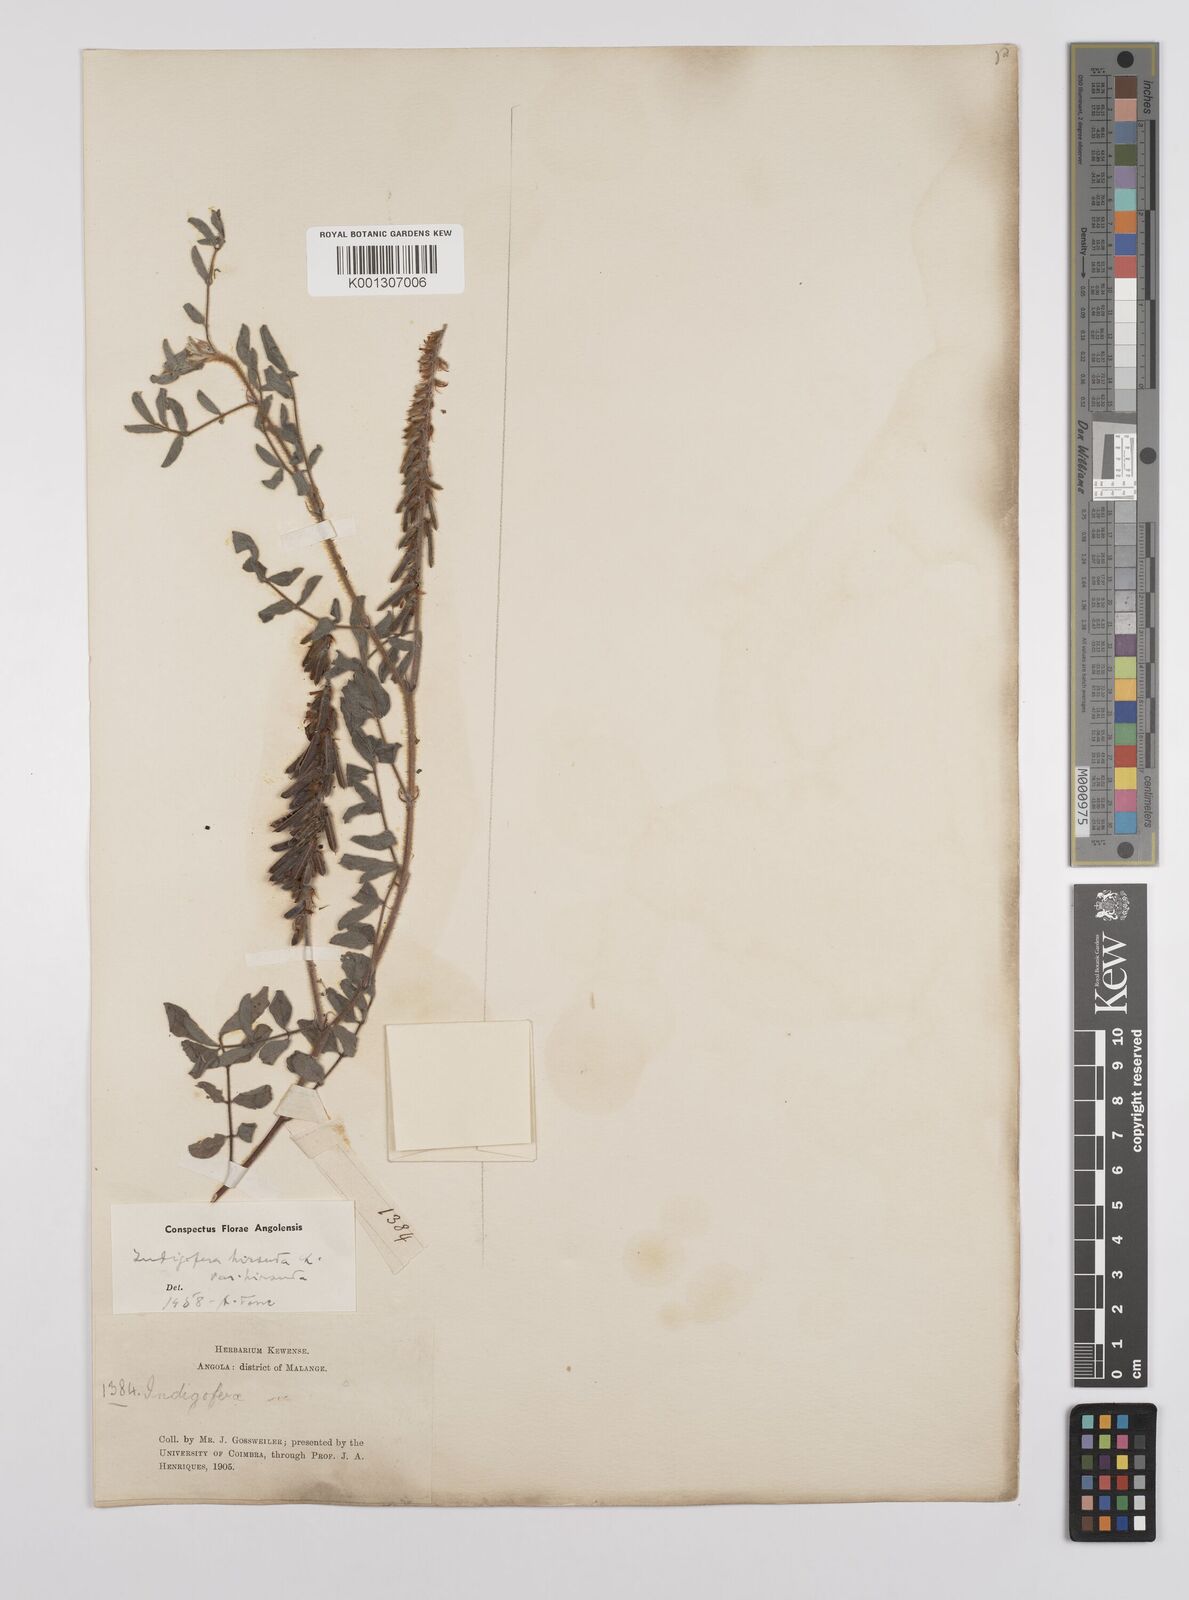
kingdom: Plantae
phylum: Tracheophyta
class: Magnoliopsida
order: Fabales
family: Fabaceae
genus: Indigofera
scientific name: Indigofera
